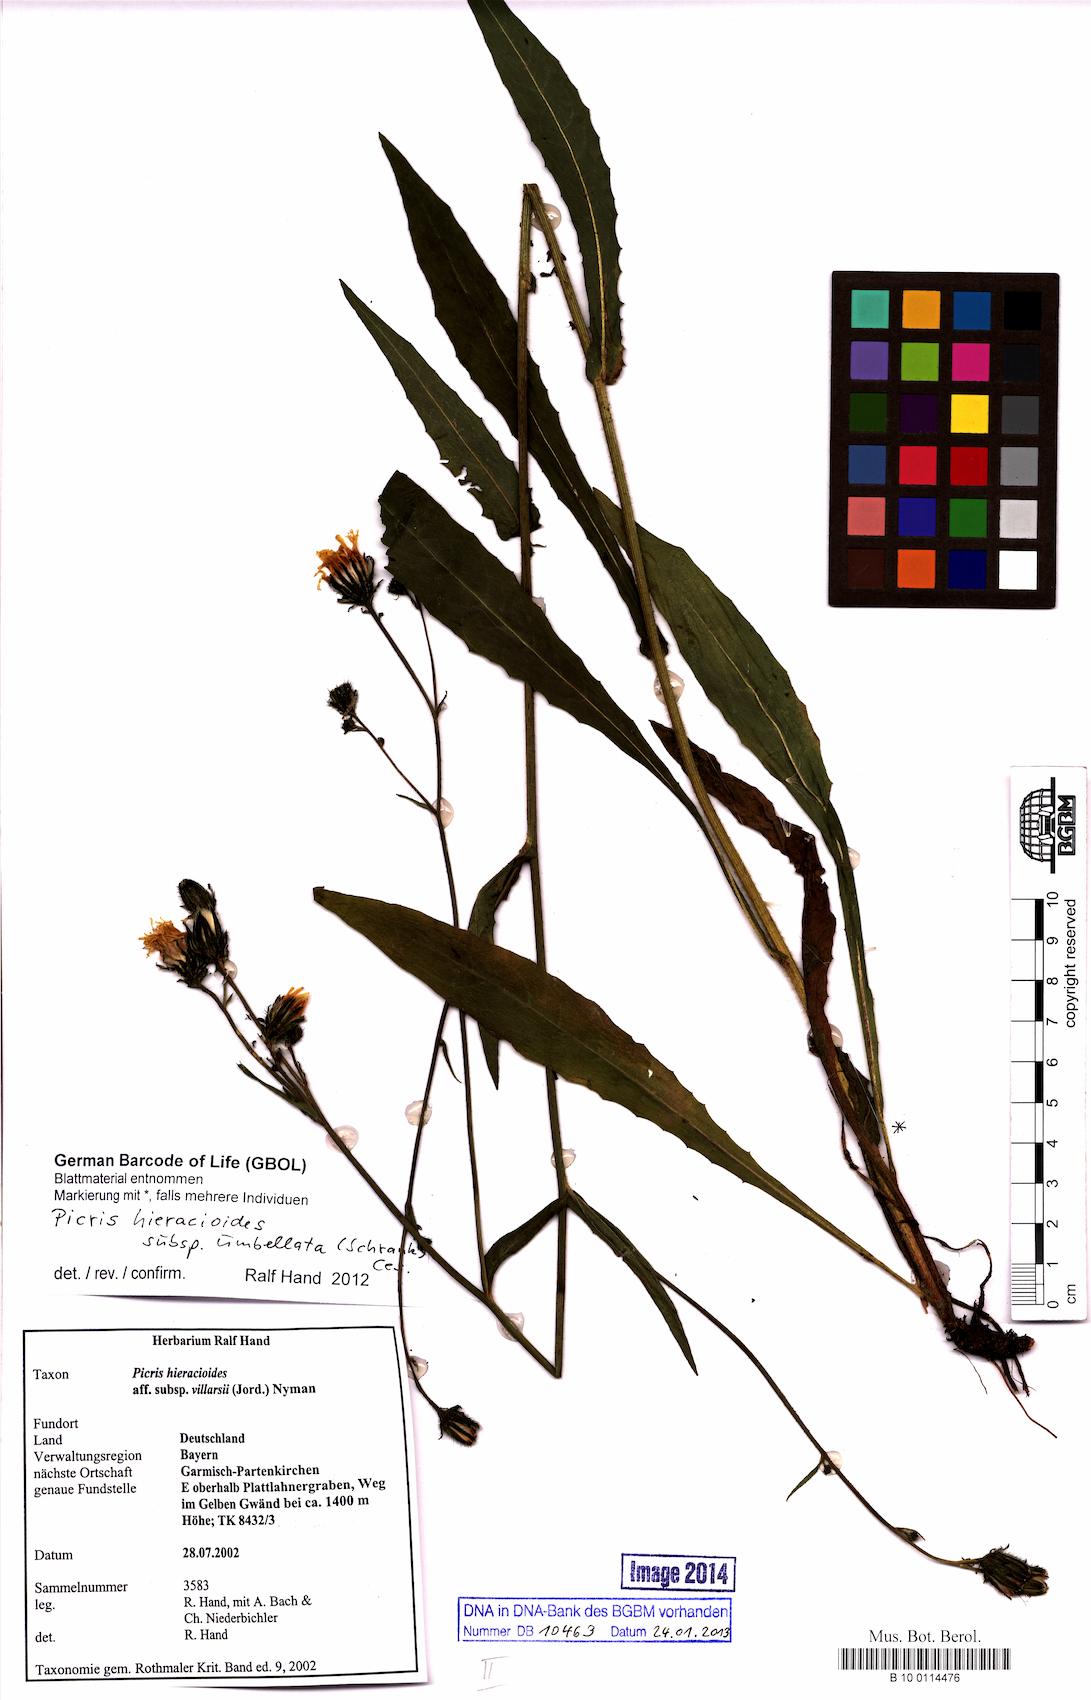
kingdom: Plantae
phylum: Tracheophyta
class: Magnoliopsida
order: Asterales
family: Asteraceae
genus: Picris
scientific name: Picris hieracioides
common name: Hawkweed oxtongue
